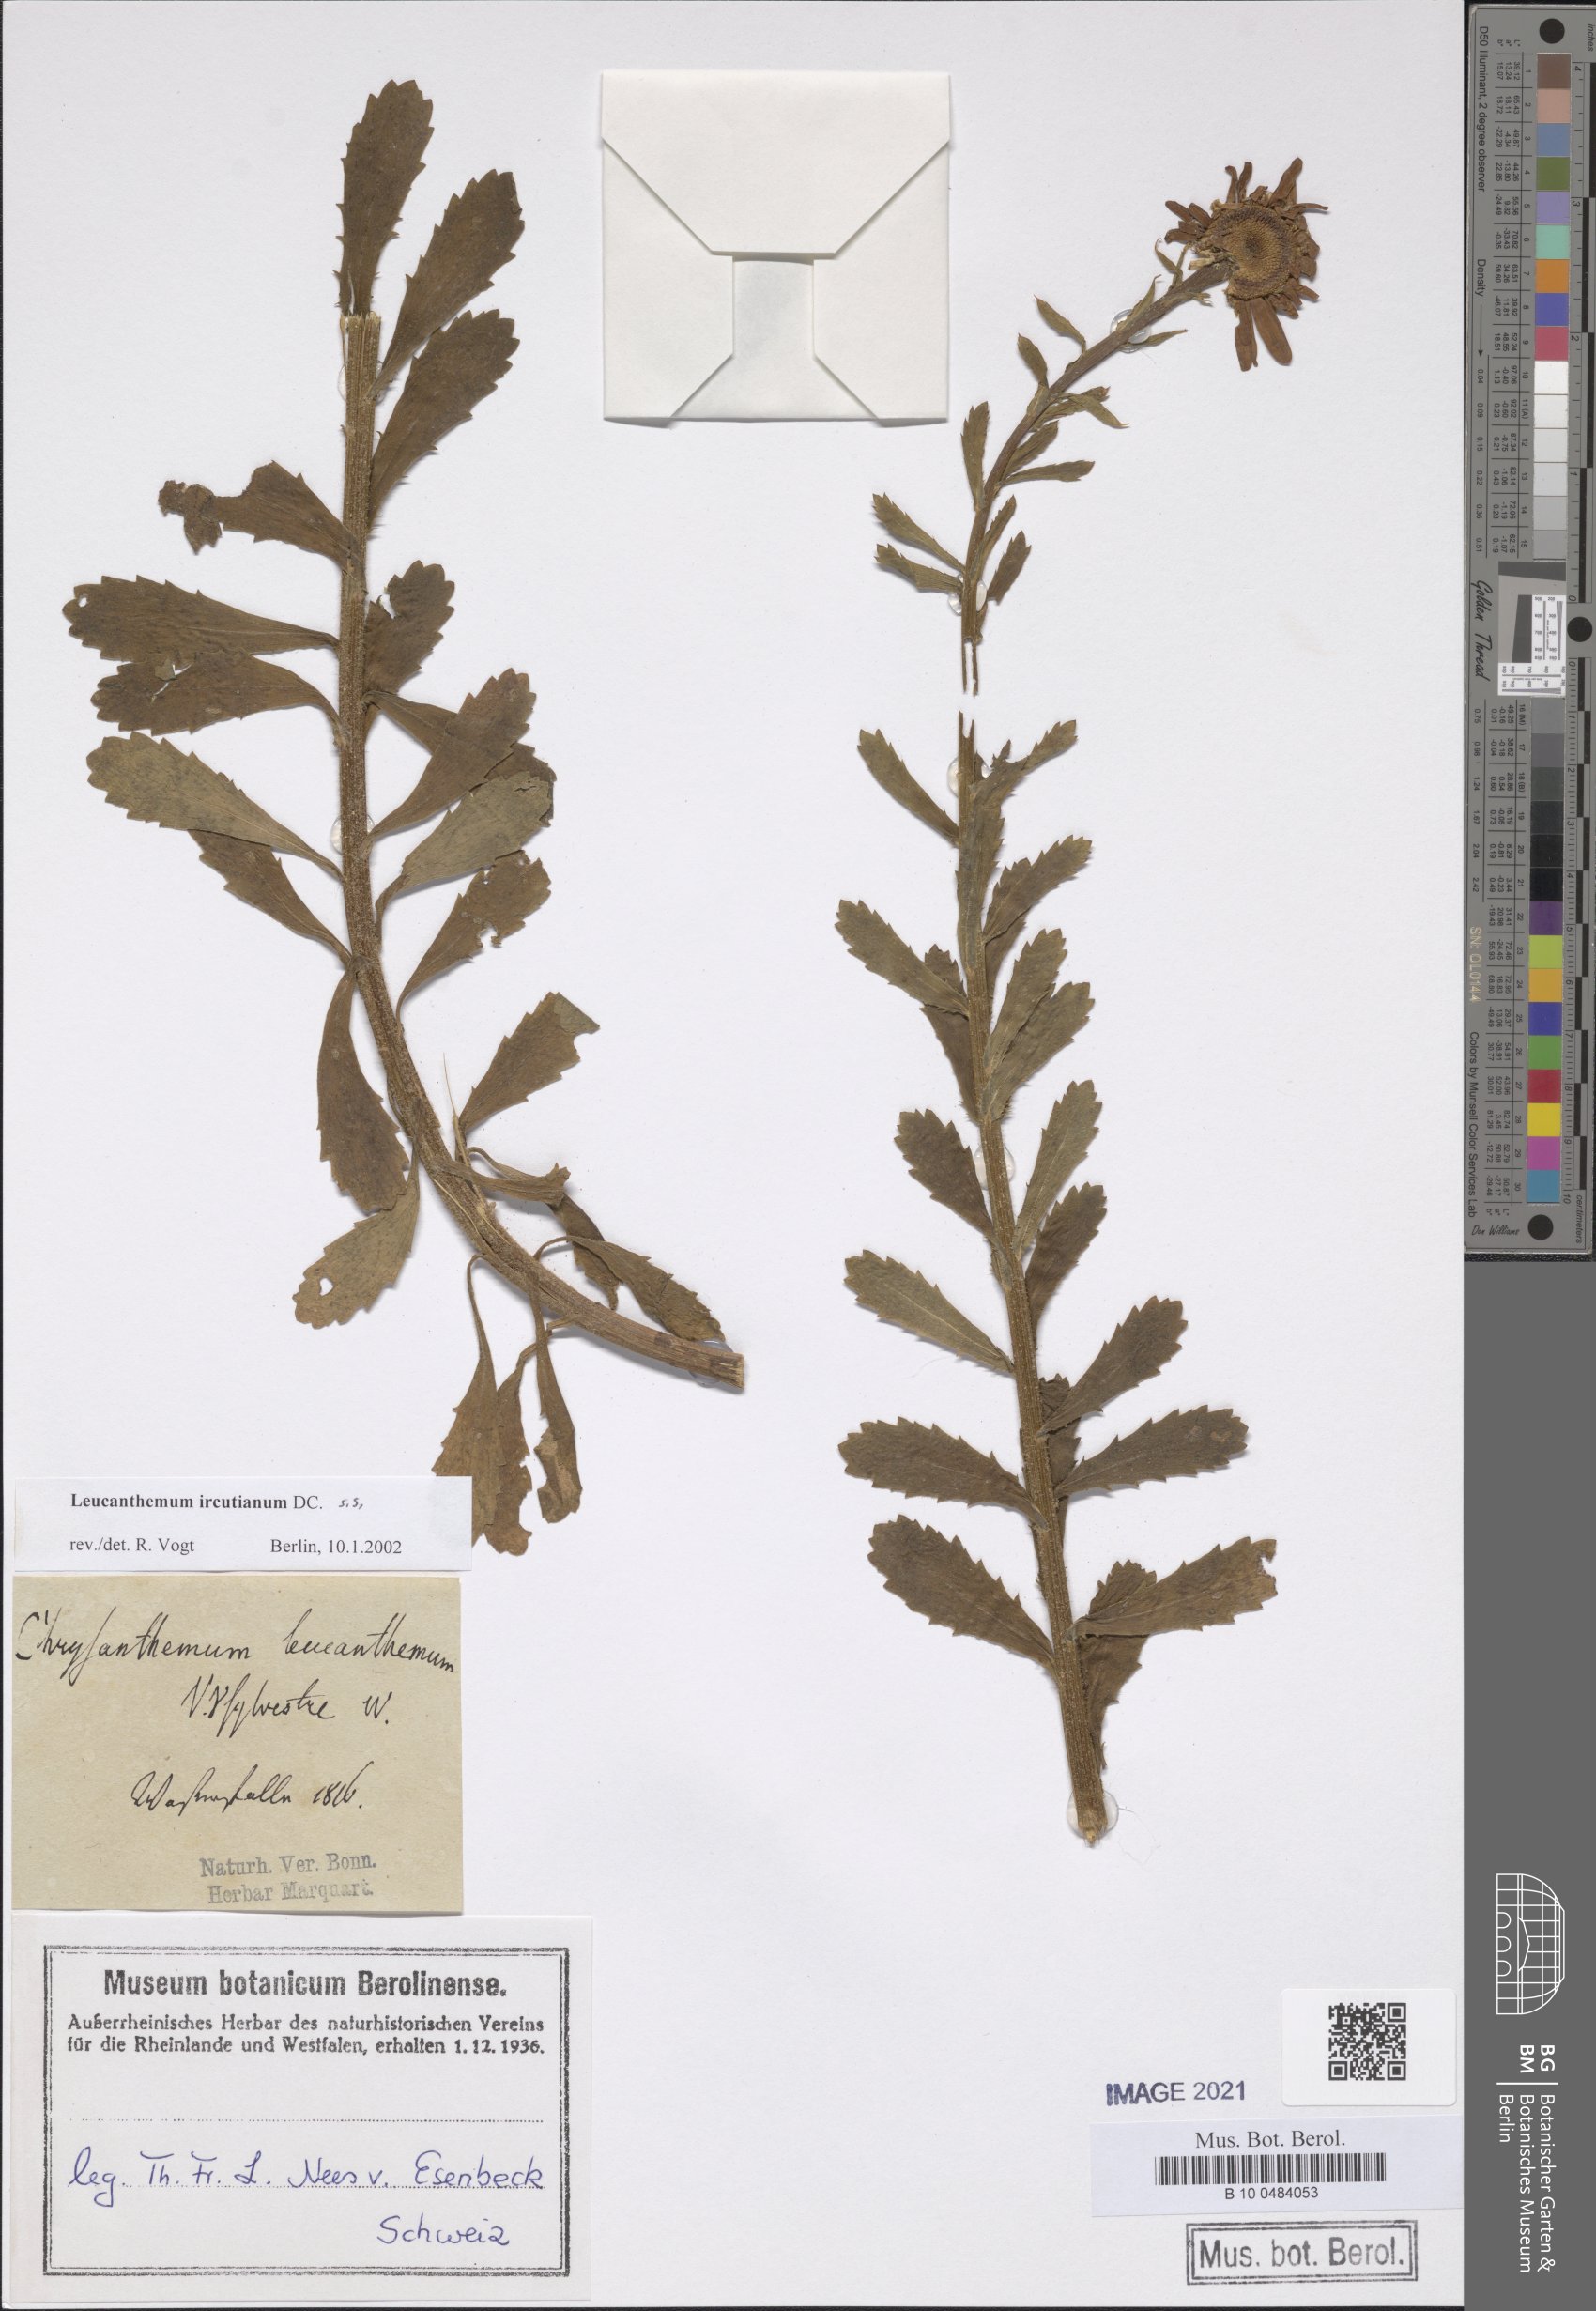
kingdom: Plantae
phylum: Tracheophyta
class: Magnoliopsida
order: Asterales
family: Asteraceae
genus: Leucanthemum
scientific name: Leucanthemum ircutianum
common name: Daisy
